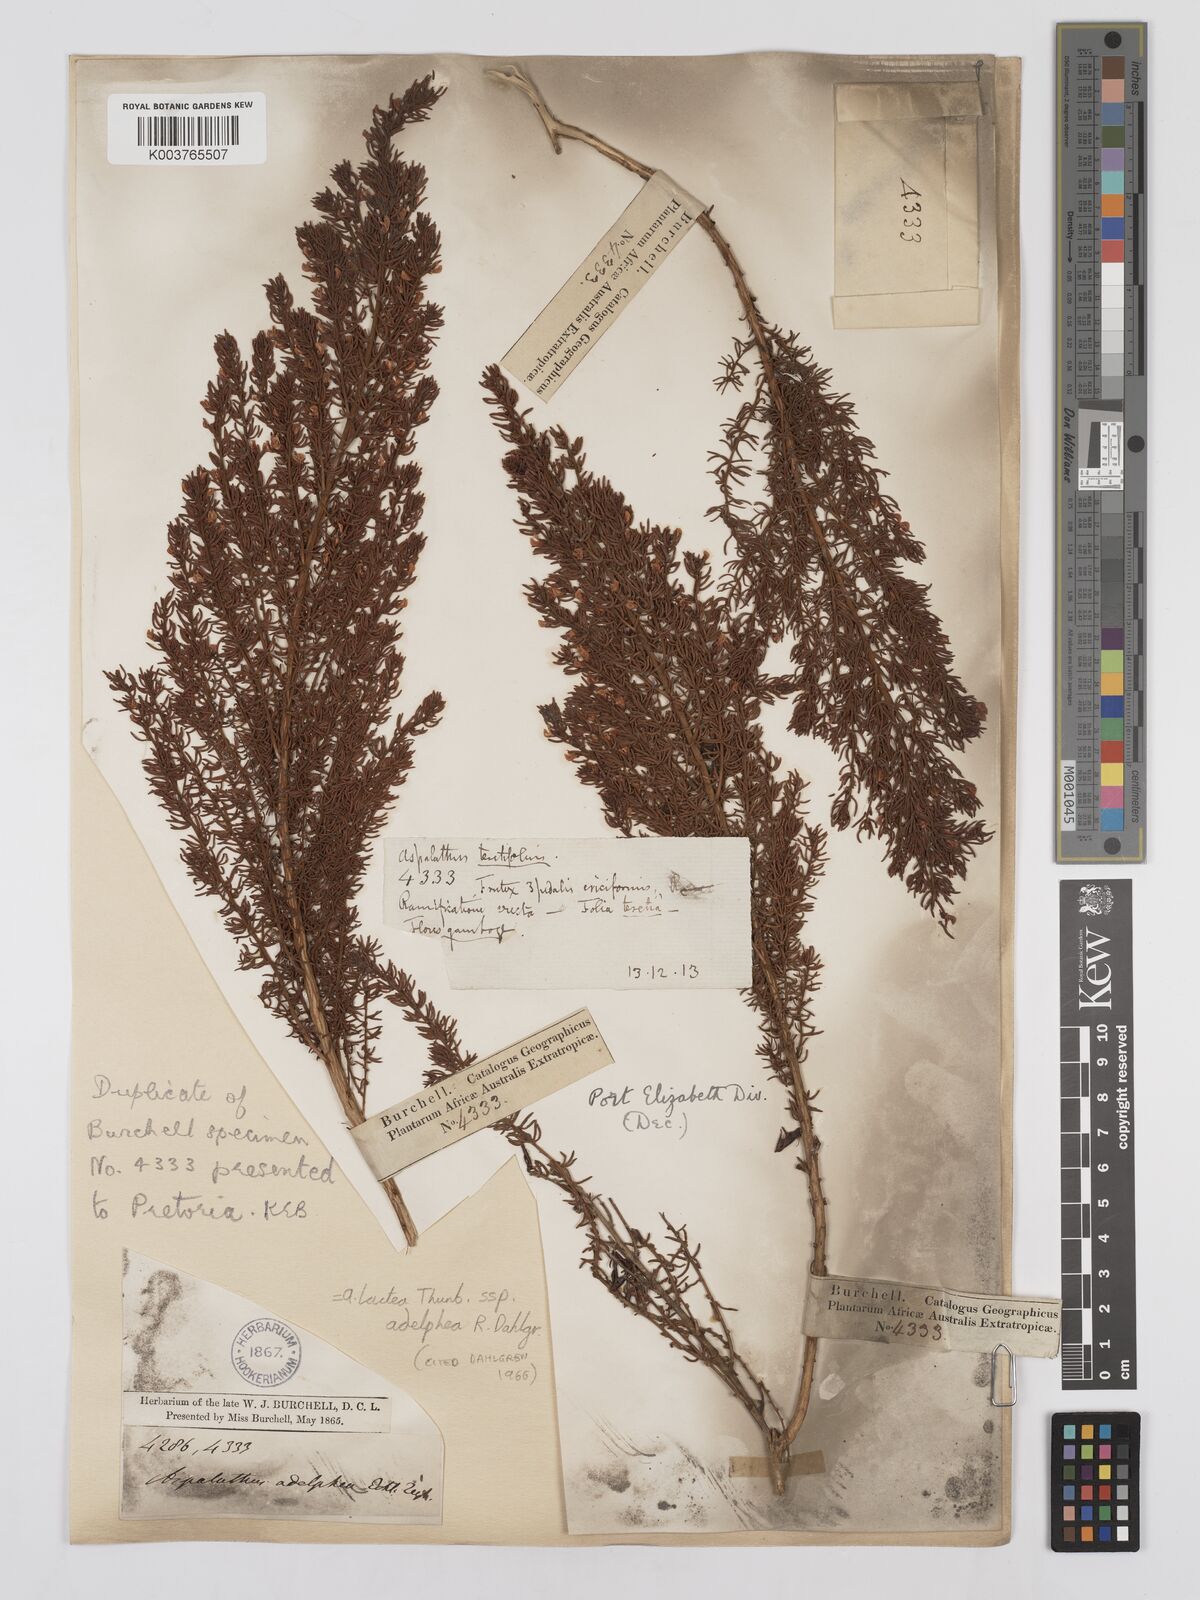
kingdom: Plantae
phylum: Tracheophyta
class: Magnoliopsida
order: Fabales
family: Fabaceae
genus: Aspalathus
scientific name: Aspalathus lactea
